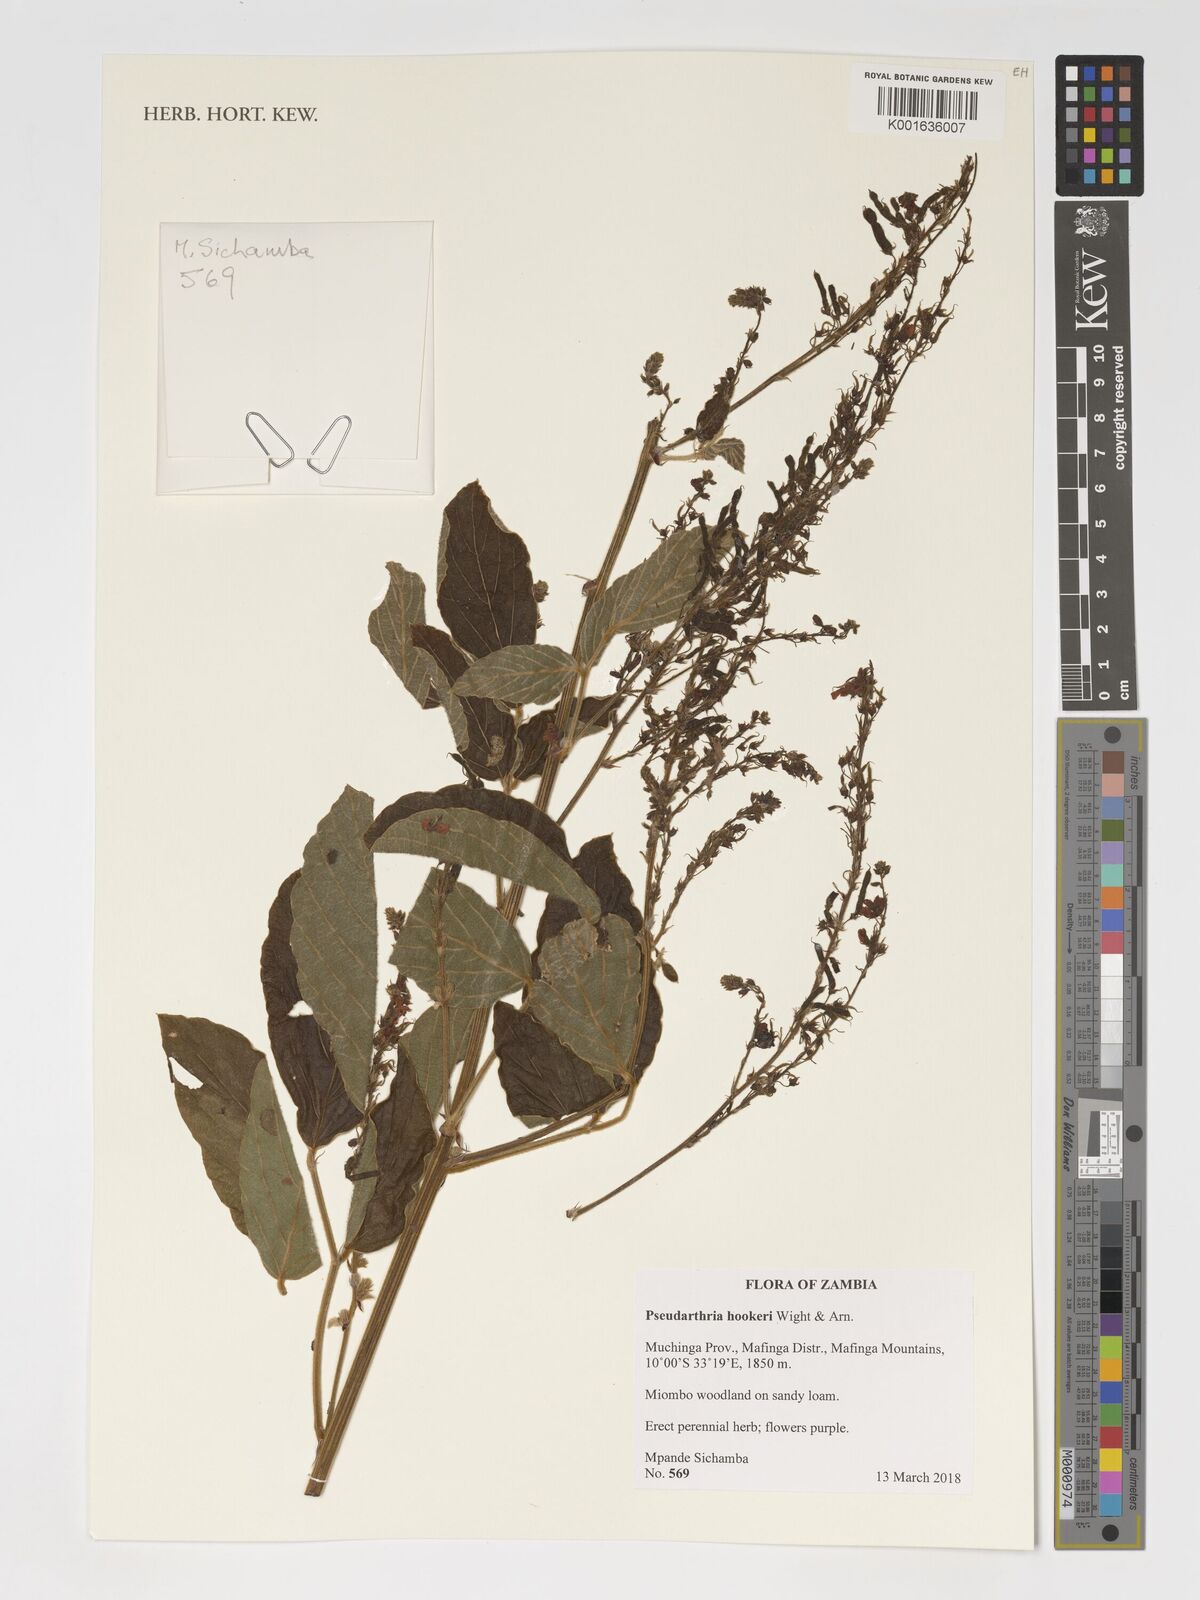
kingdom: Plantae
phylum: Tracheophyta
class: Magnoliopsida
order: Fabales
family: Fabaceae
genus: Pseudarthria
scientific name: Pseudarthria hookeri
